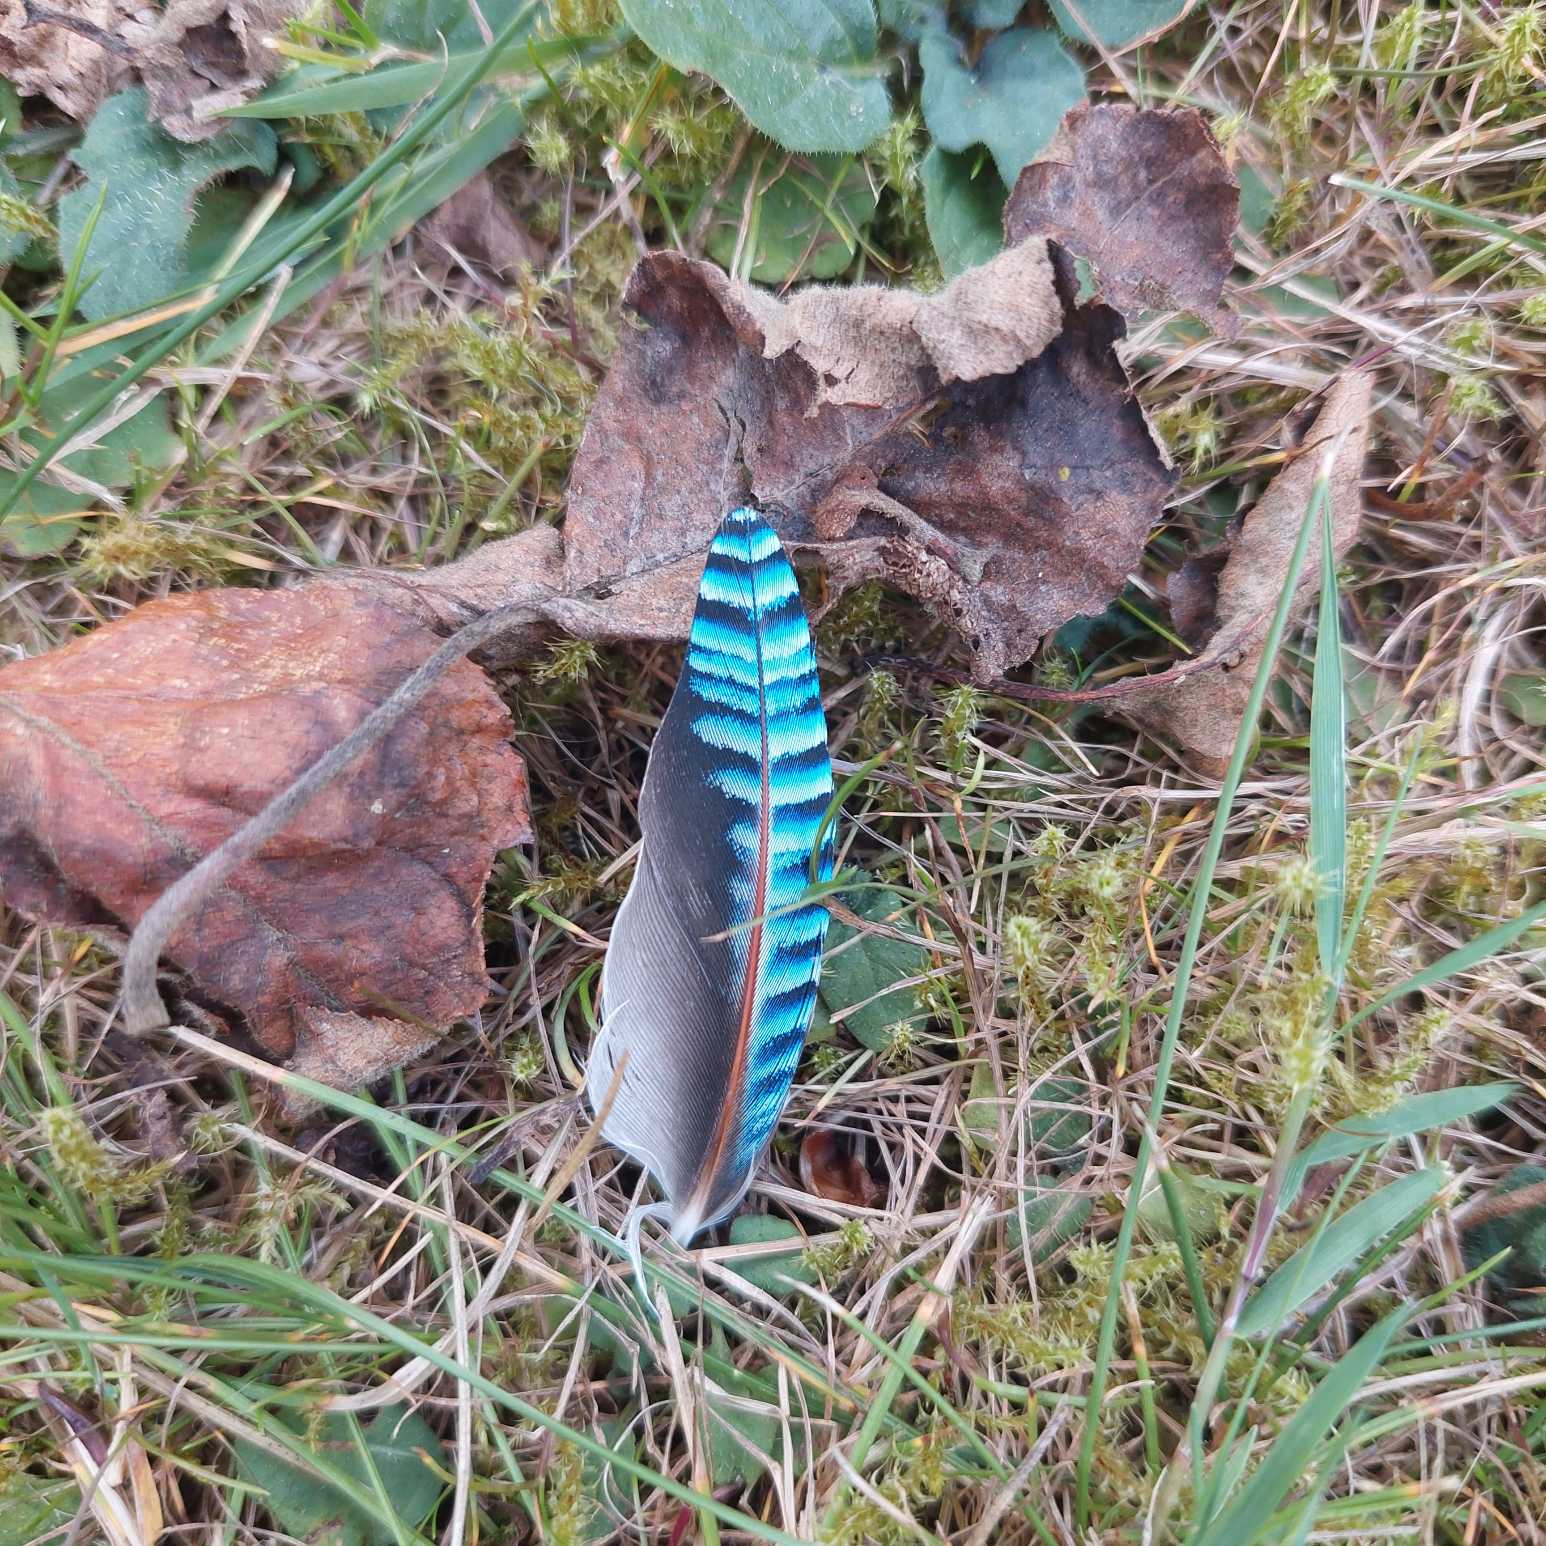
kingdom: Animalia
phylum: Chordata
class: Aves
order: Passeriformes
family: Corvidae
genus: Garrulus
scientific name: Garrulus glandarius
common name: Skovskade
